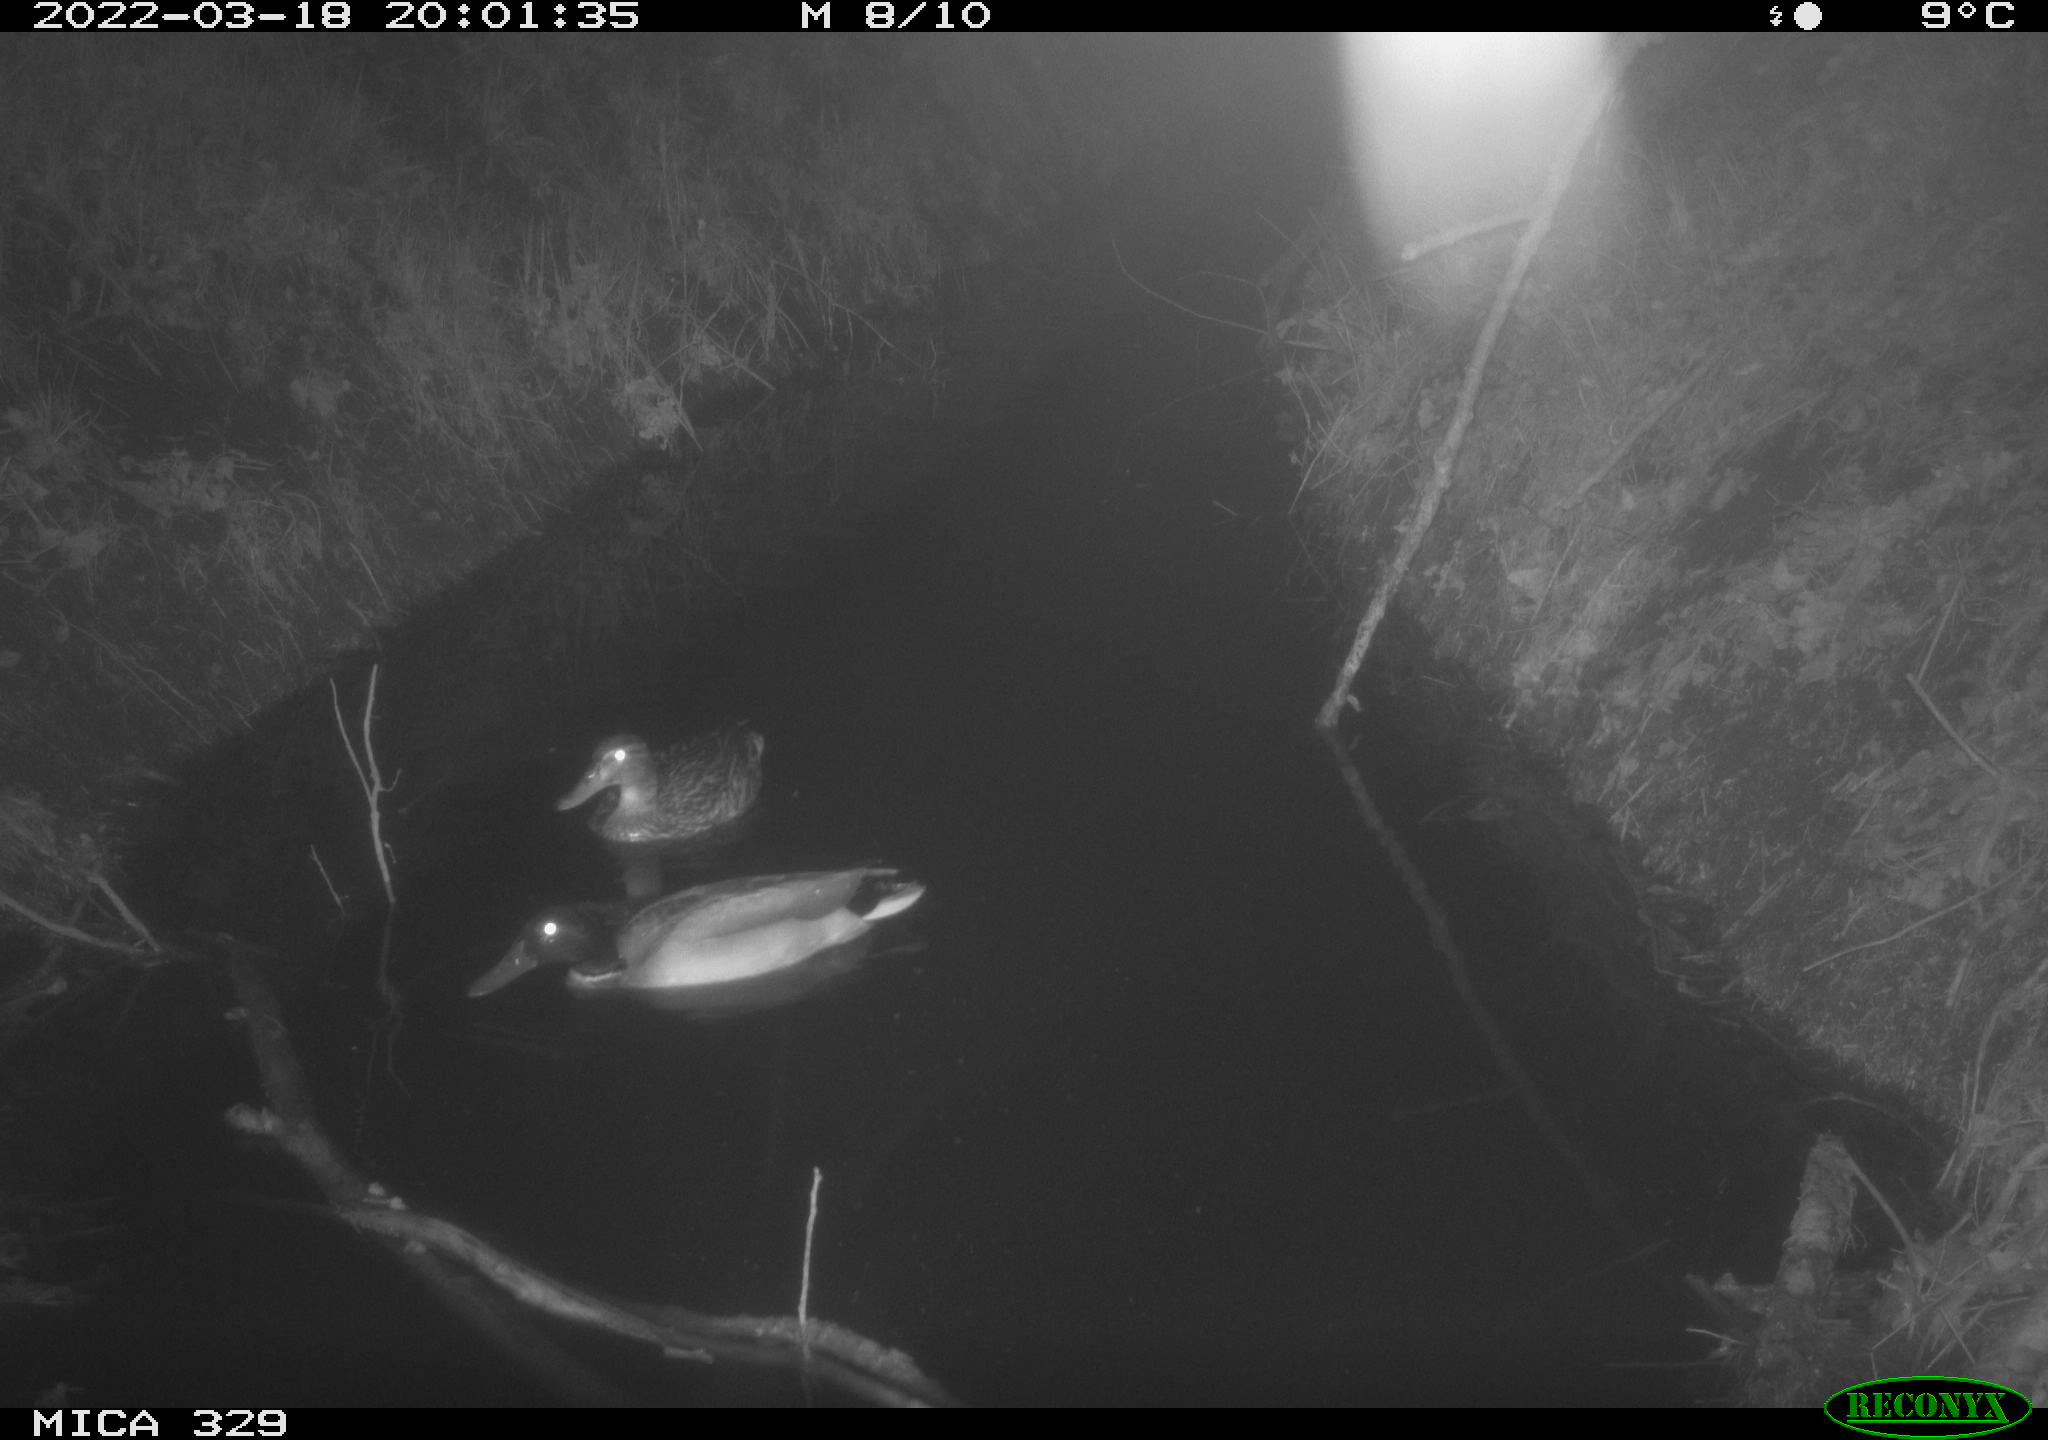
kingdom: Animalia
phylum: Chordata
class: Aves
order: Anseriformes
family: Anatidae
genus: Anas
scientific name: Anas platyrhynchos
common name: Mallard
